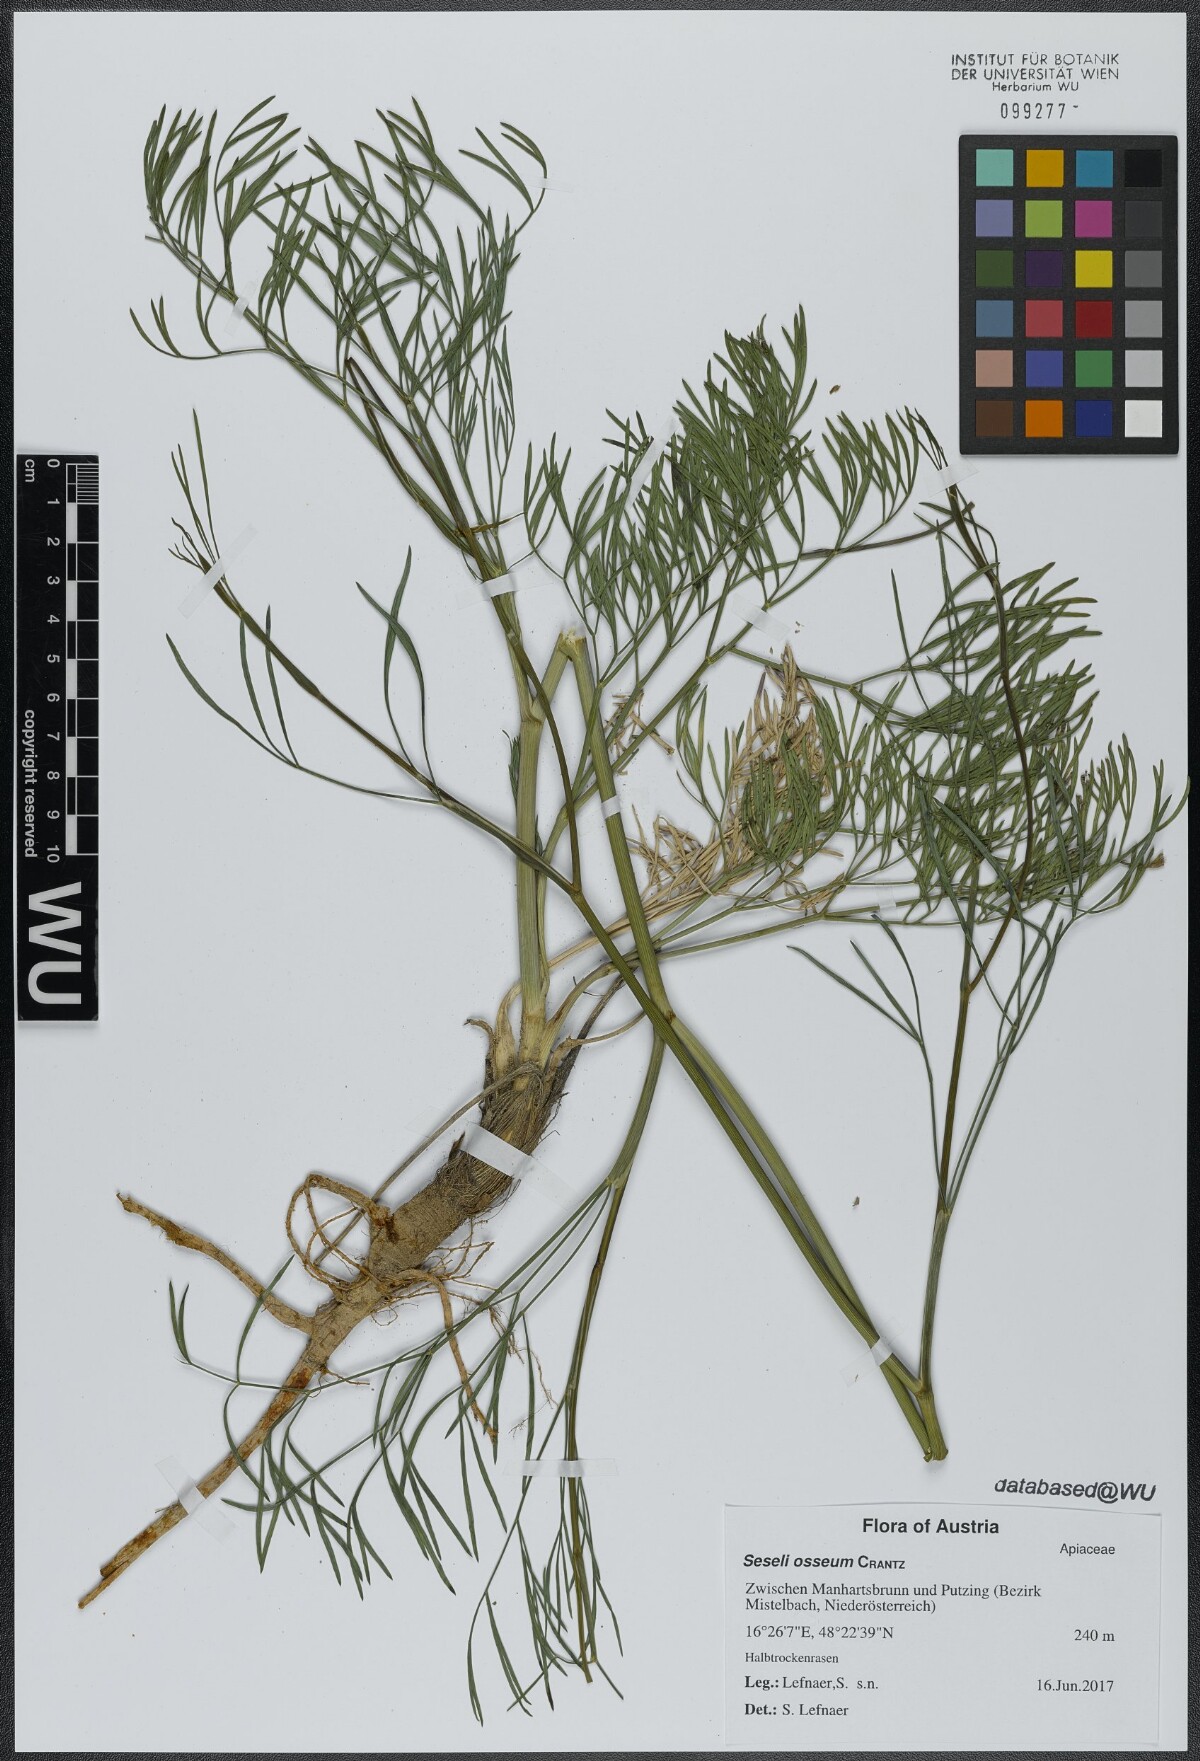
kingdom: Plantae
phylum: Tracheophyta
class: Magnoliopsida
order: Apiales
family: Apiaceae
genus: Seseli
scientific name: Seseli osseum
